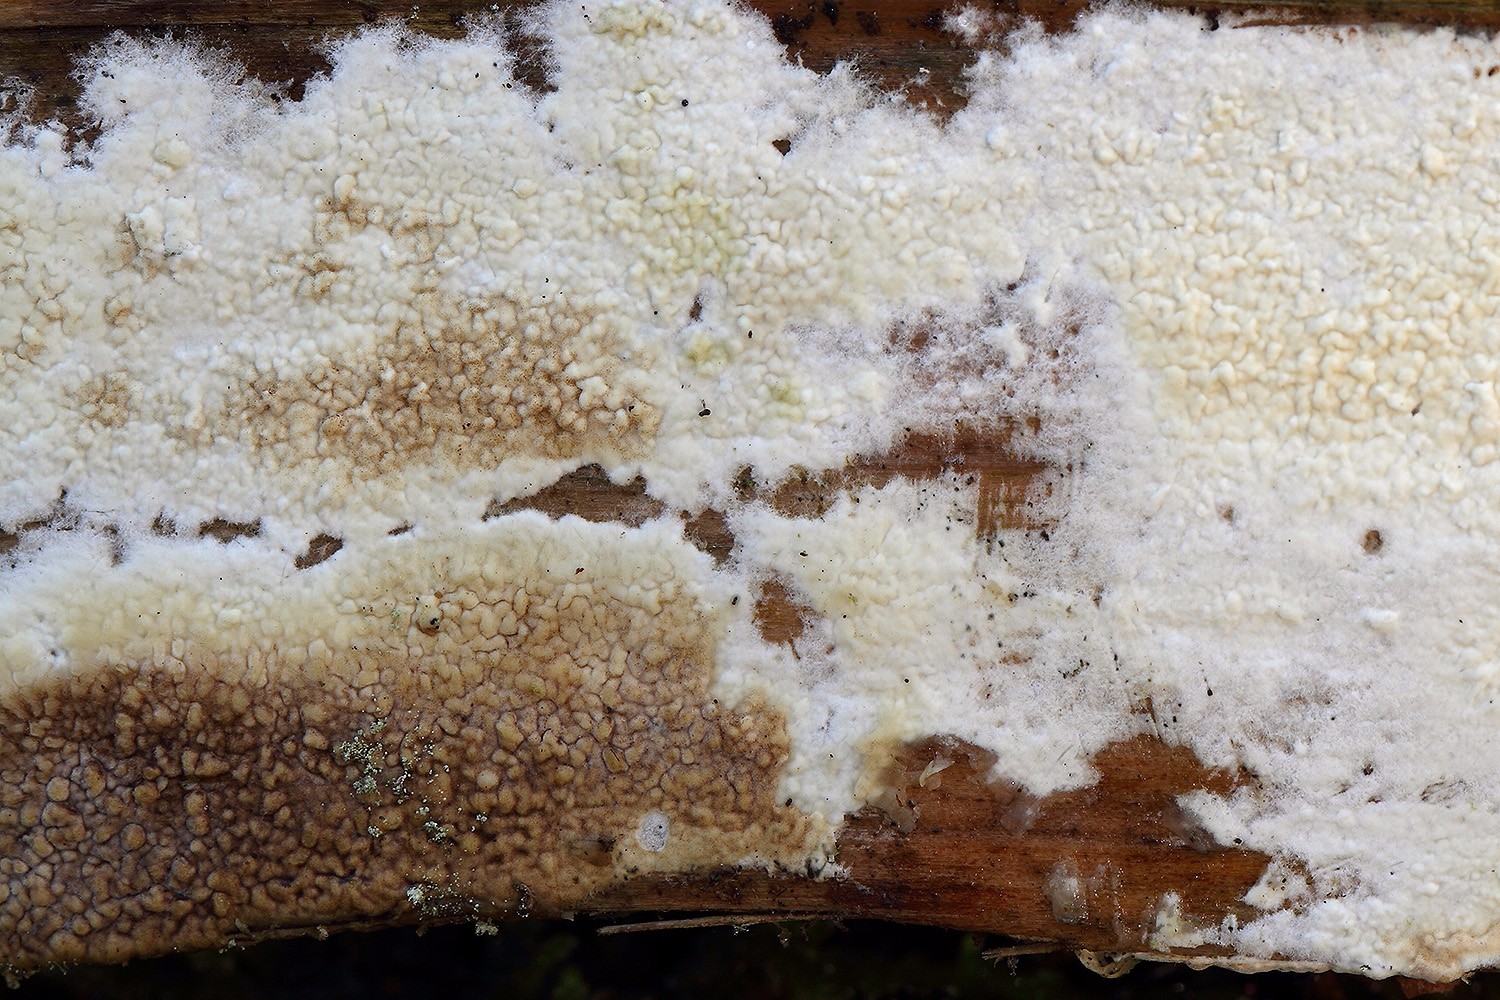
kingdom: Fungi
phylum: Basidiomycota
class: Agaricomycetes
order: Boletales
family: Coniophoraceae
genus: Coniophora
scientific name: Coniophora puteana
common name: gul tømmersvamp
